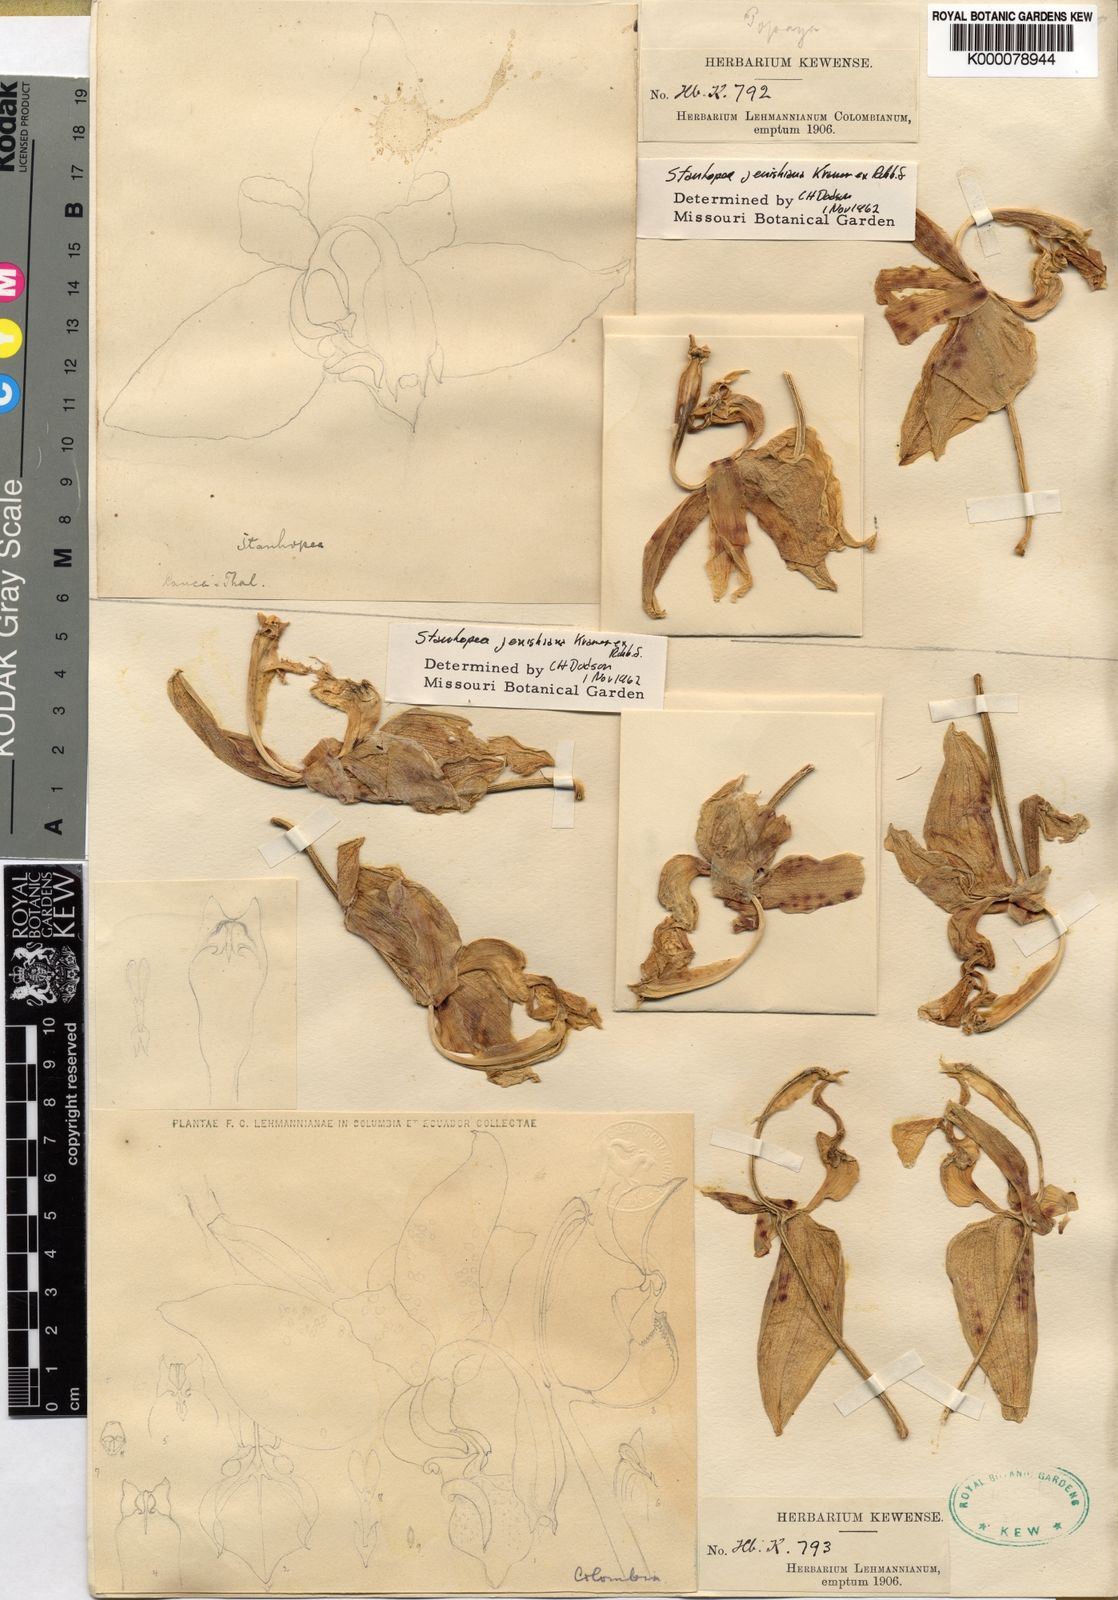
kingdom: Plantae
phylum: Tracheophyta
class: Liliopsida
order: Asparagales
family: Orchidaceae
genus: Stanhopea
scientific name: Stanhopea
